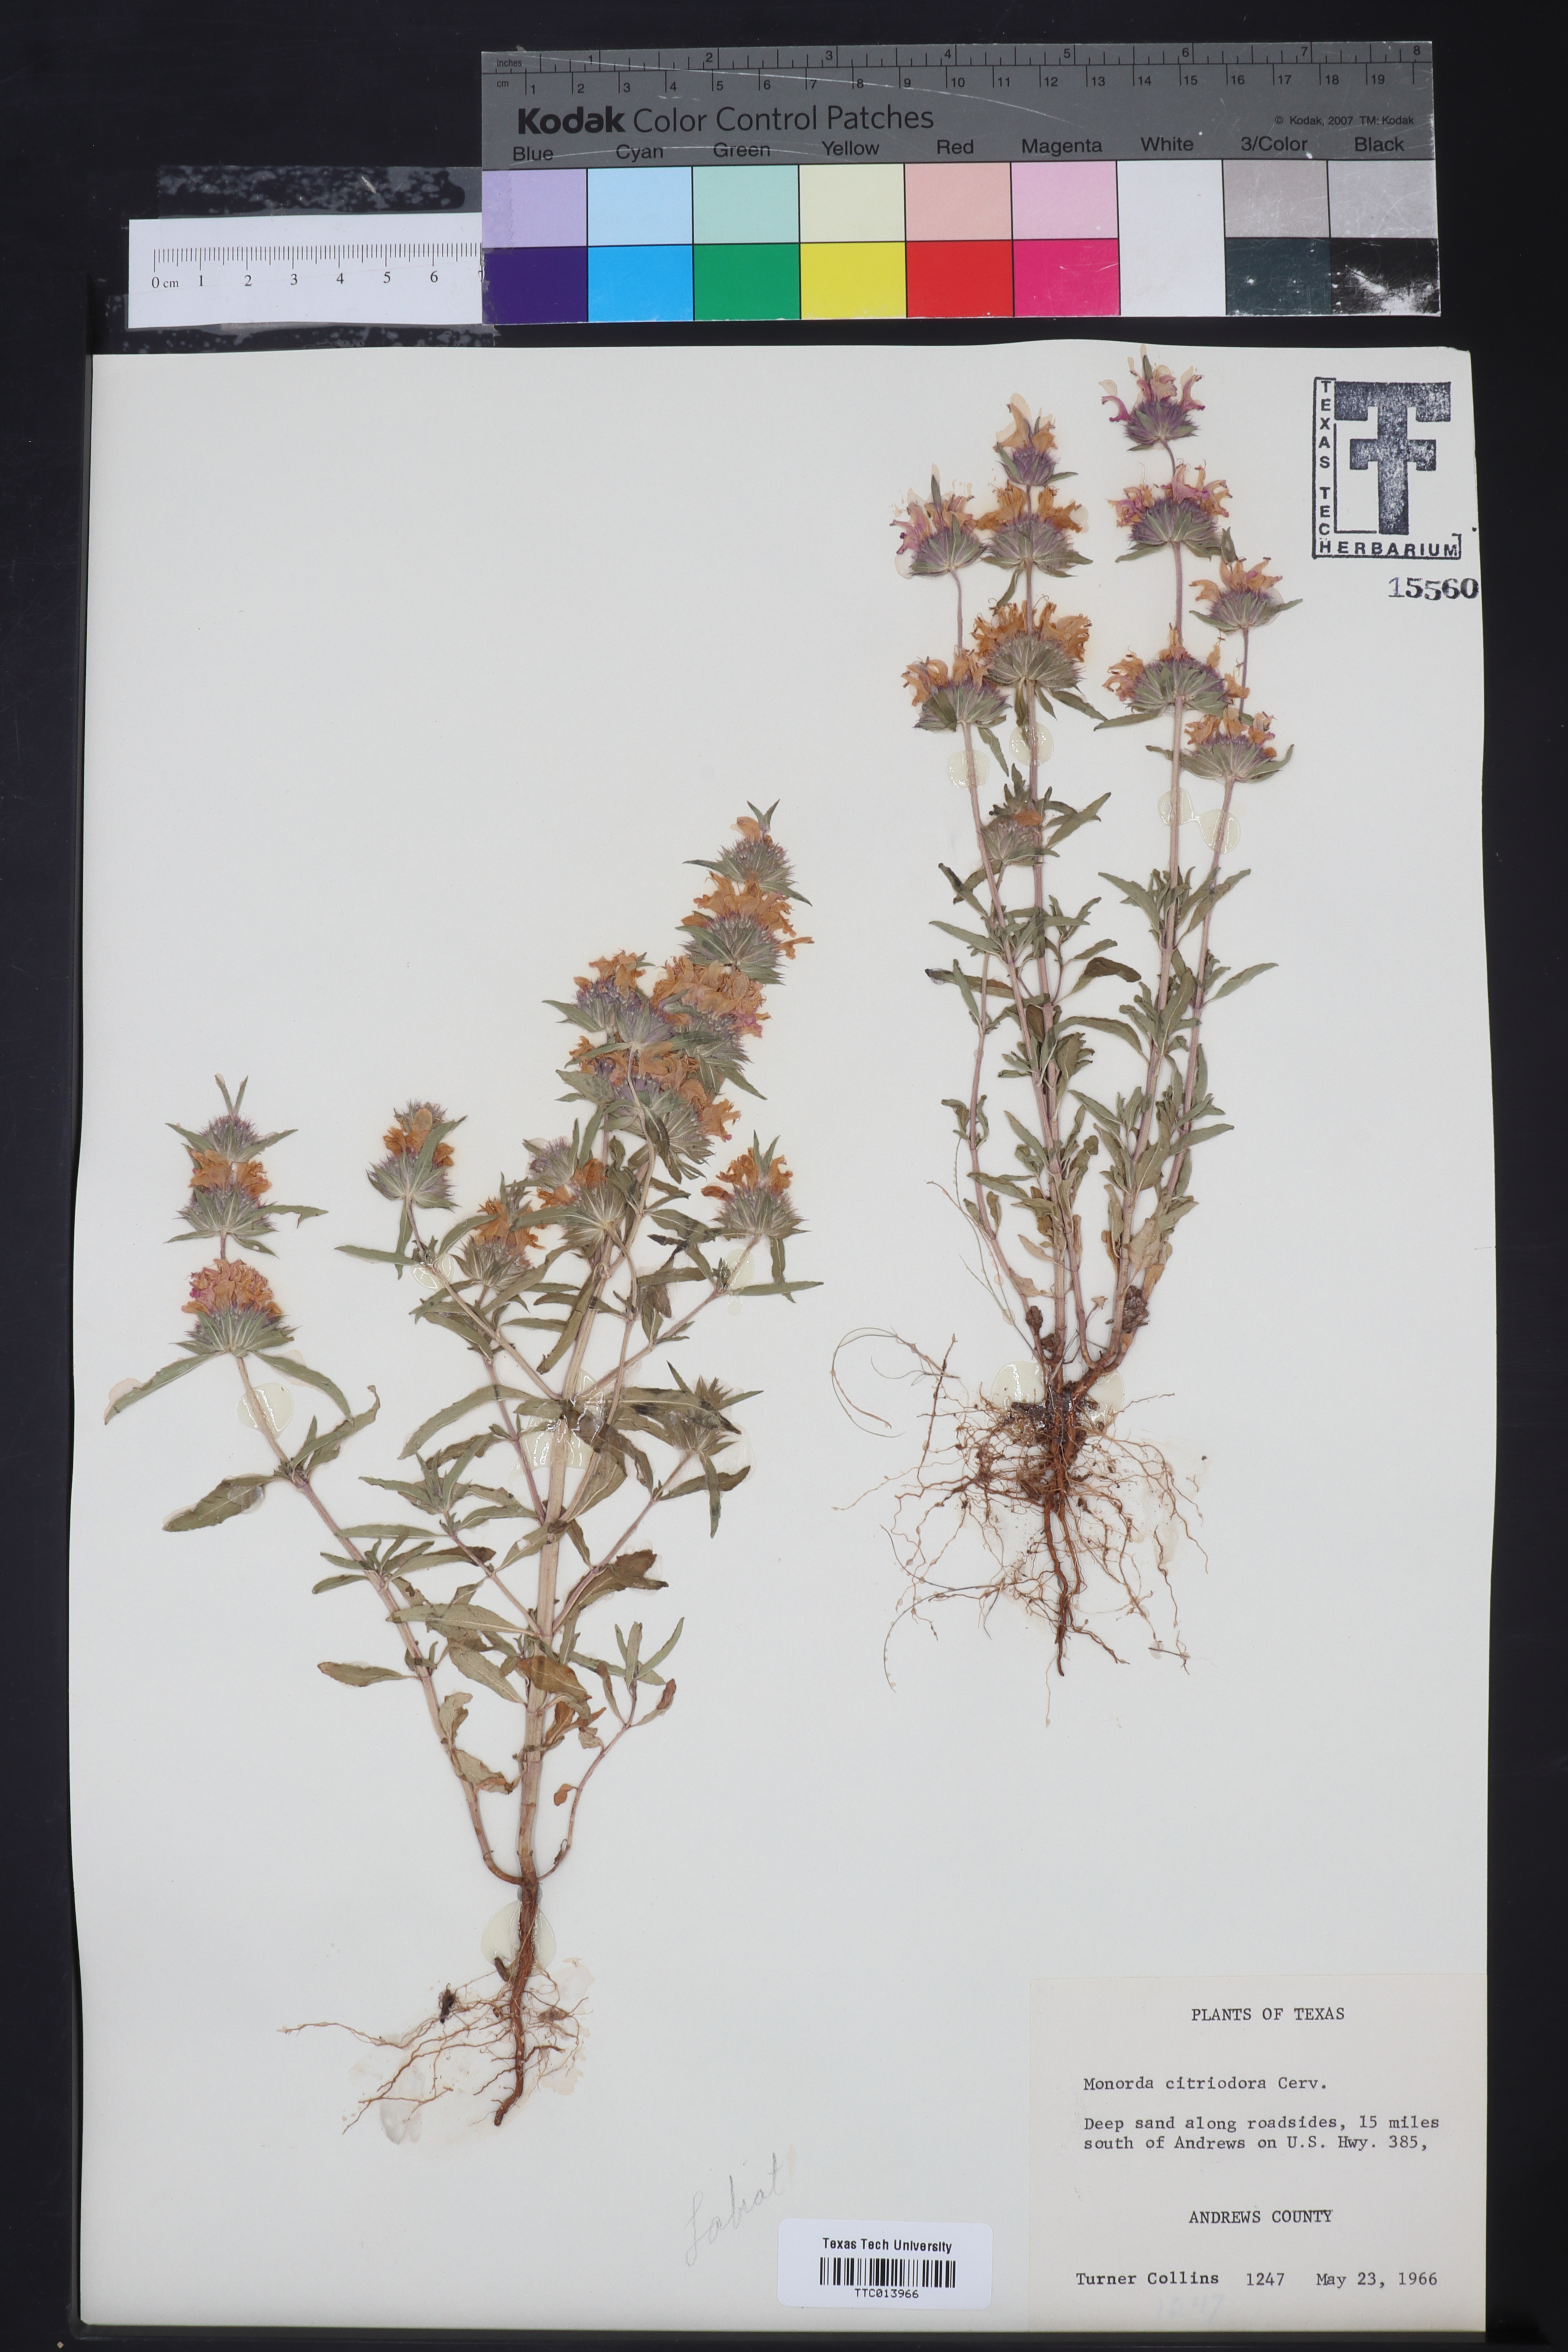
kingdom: Plantae
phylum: Tracheophyta
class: Magnoliopsida
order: Lamiales
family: Lamiaceae
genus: Monarda
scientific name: Monarda citriodora
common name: Lemon beebalm
